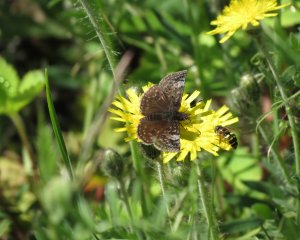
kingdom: Animalia
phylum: Arthropoda
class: Insecta
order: Lepidoptera
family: Hesperiidae
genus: Erynnis
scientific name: Erynnis icelus
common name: Dreamy Duskywing
